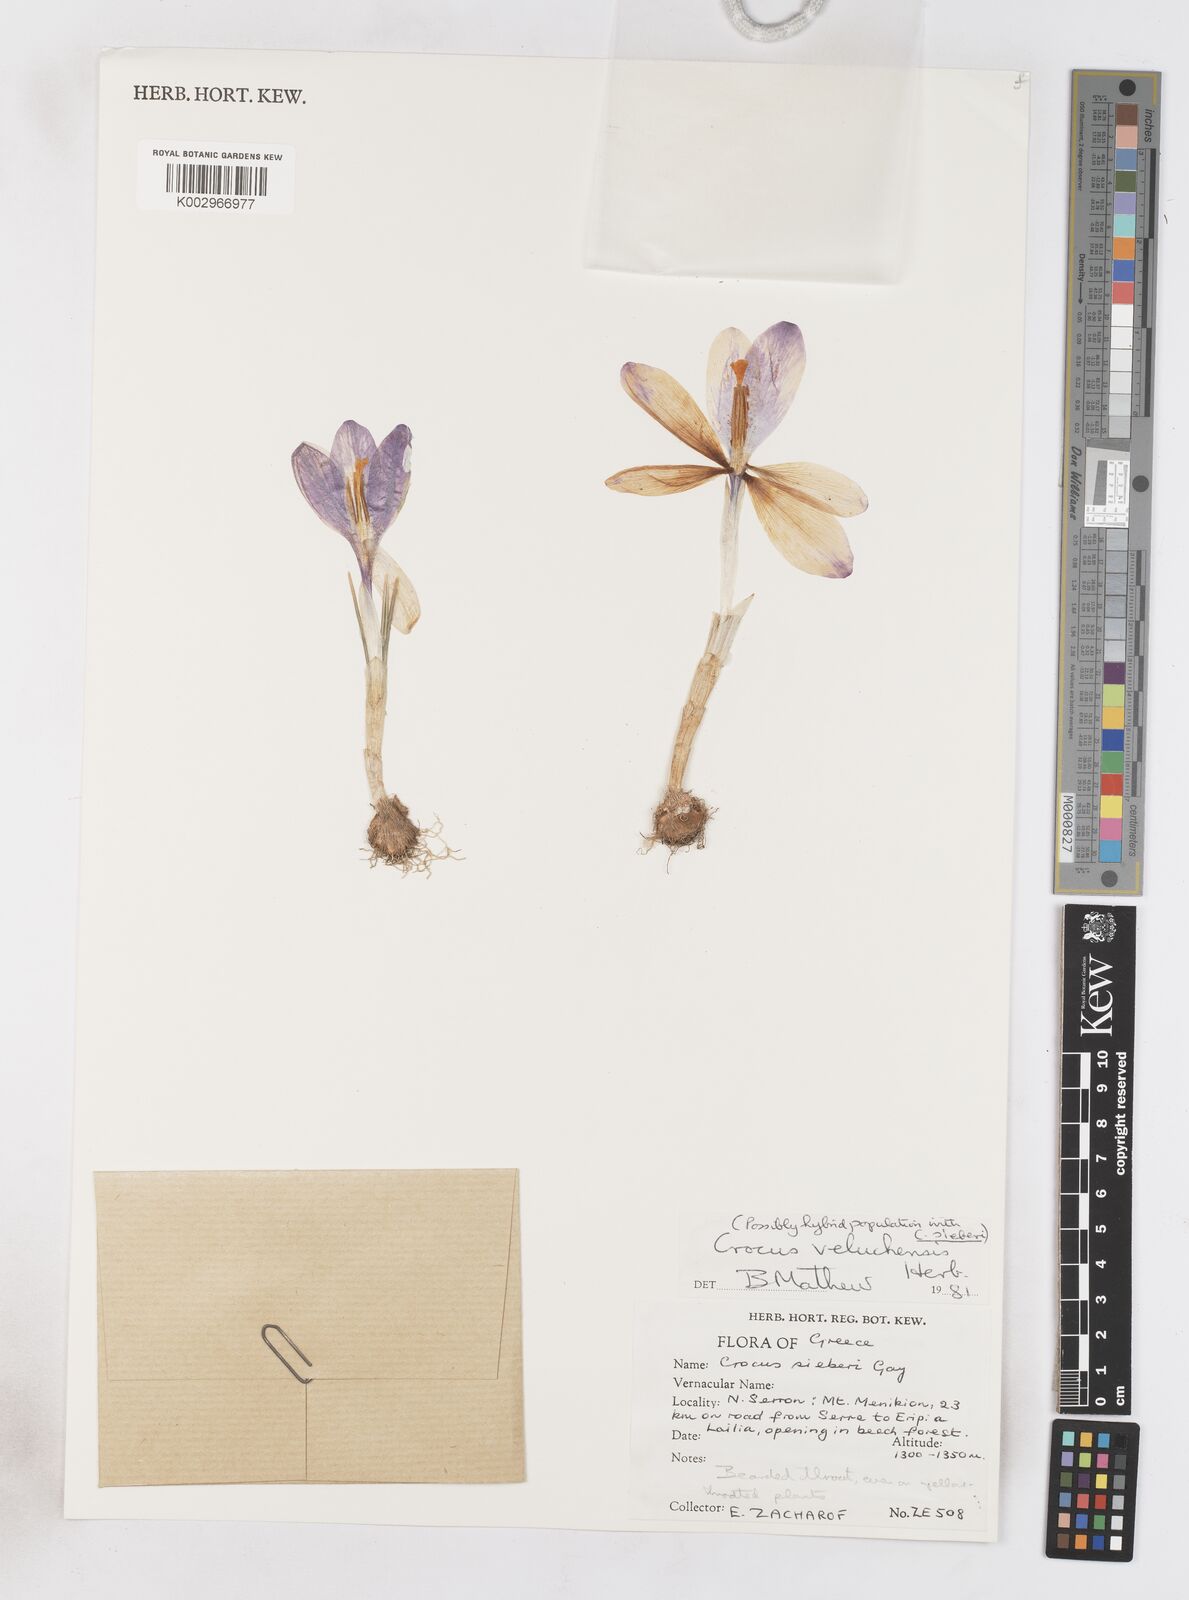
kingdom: Plantae
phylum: Tracheophyta
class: Liliopsida
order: Asparagales
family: Iridaceae
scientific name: Iridaceae
